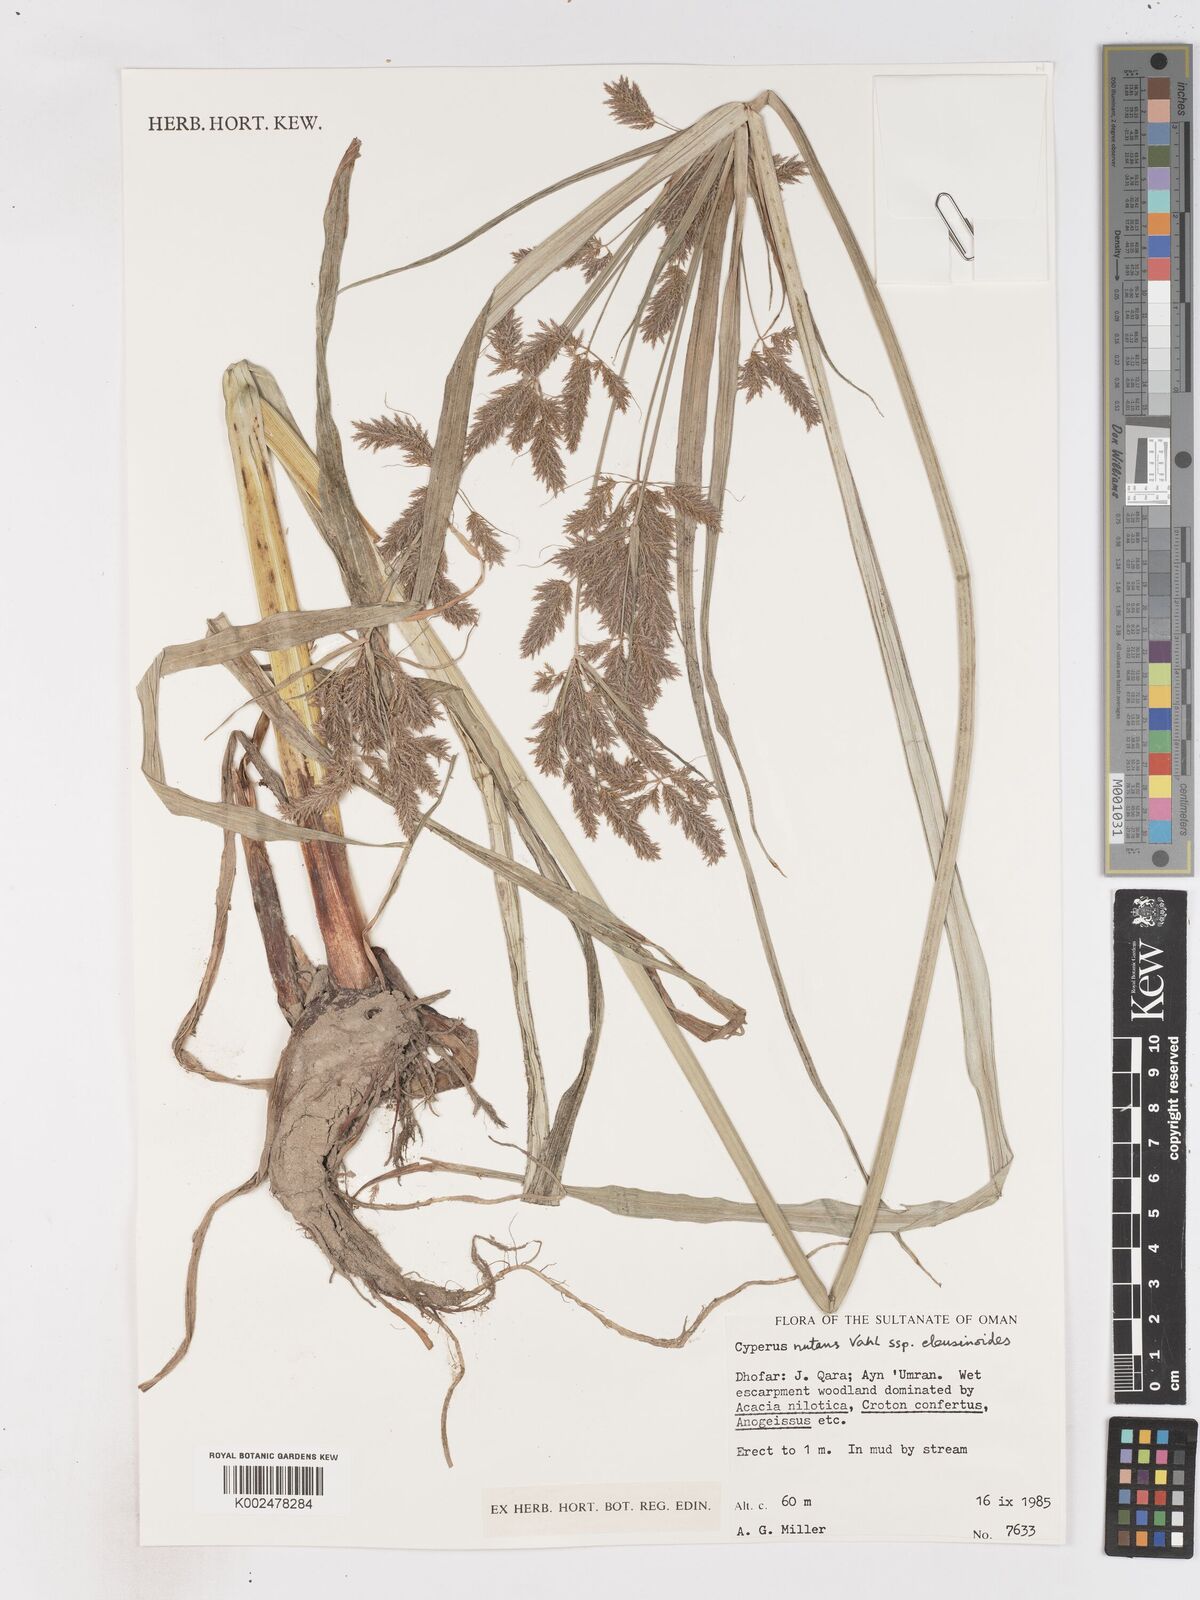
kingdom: Plantae
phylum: Tracheophyta
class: Liliopsida
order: Poales
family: Cyperaceae
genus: Cyperus
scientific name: Cyperus nutans
